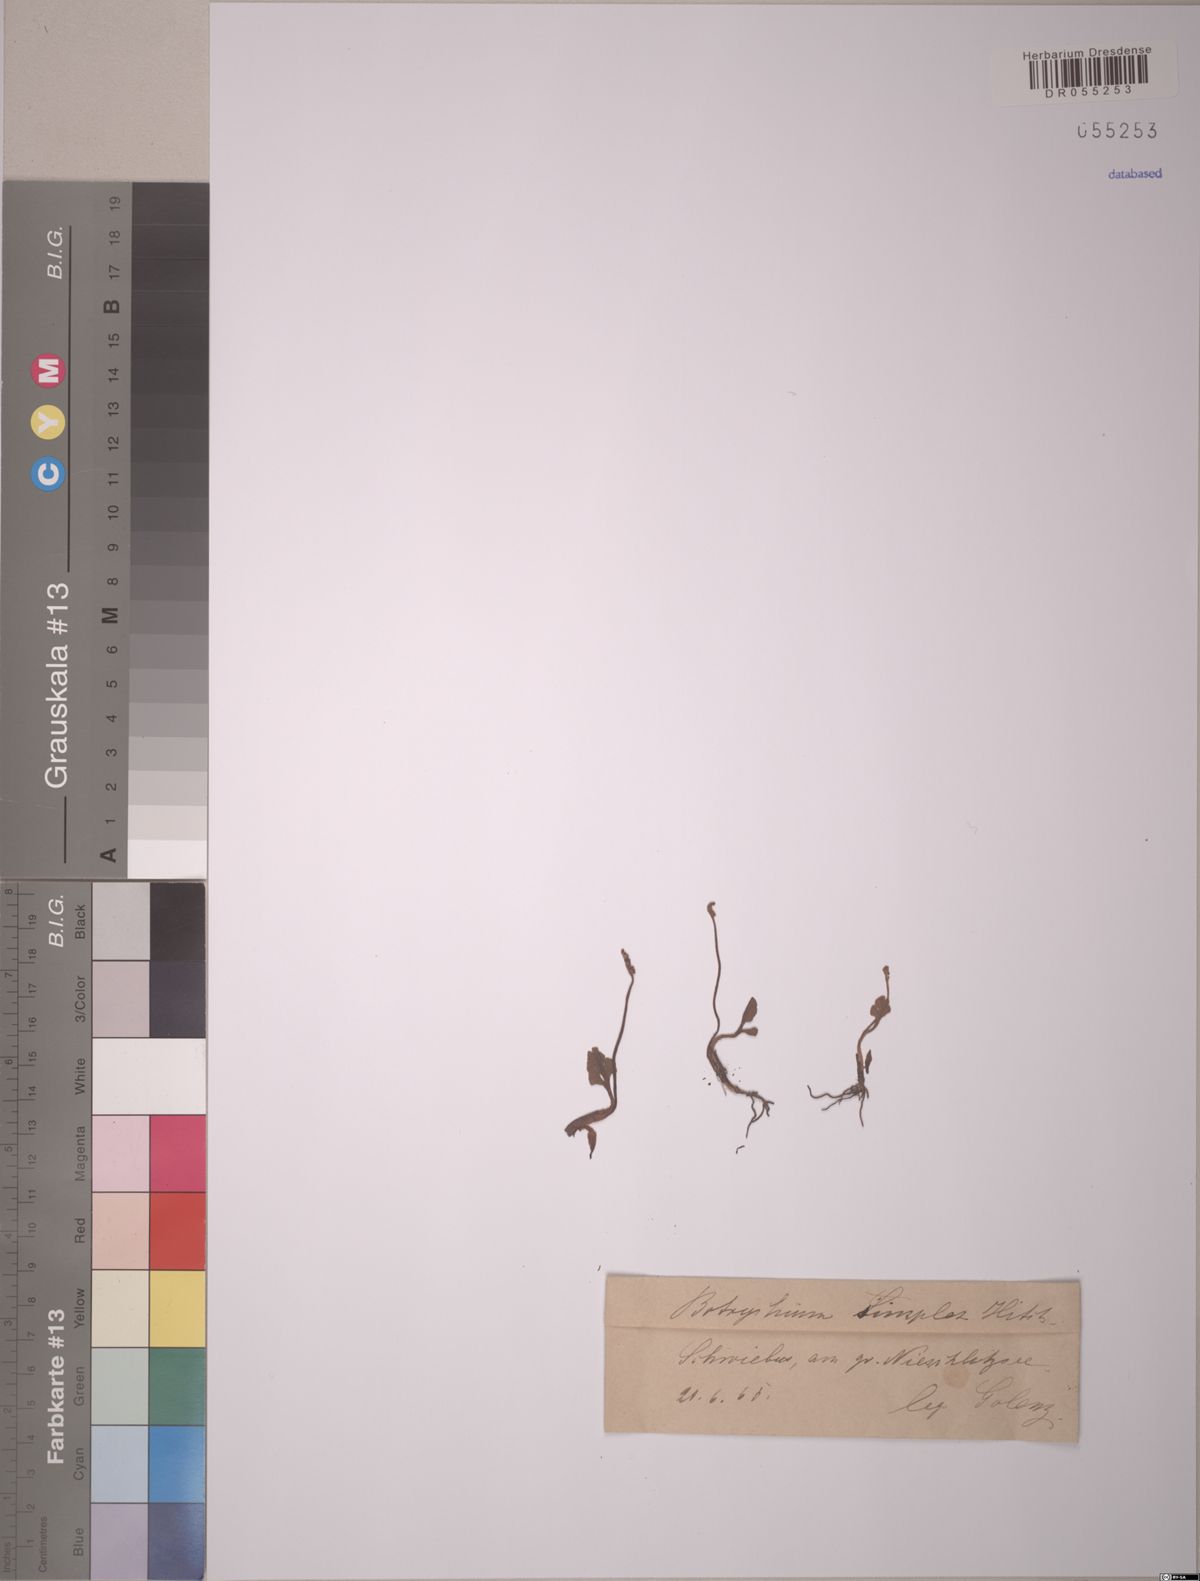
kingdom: Plantae
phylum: Tracheophyta
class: Polypodiopsida
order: Ophioglossales
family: Ophioglossaceae
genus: Botrychium
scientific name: Botrychium simplex
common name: Least moonwort
